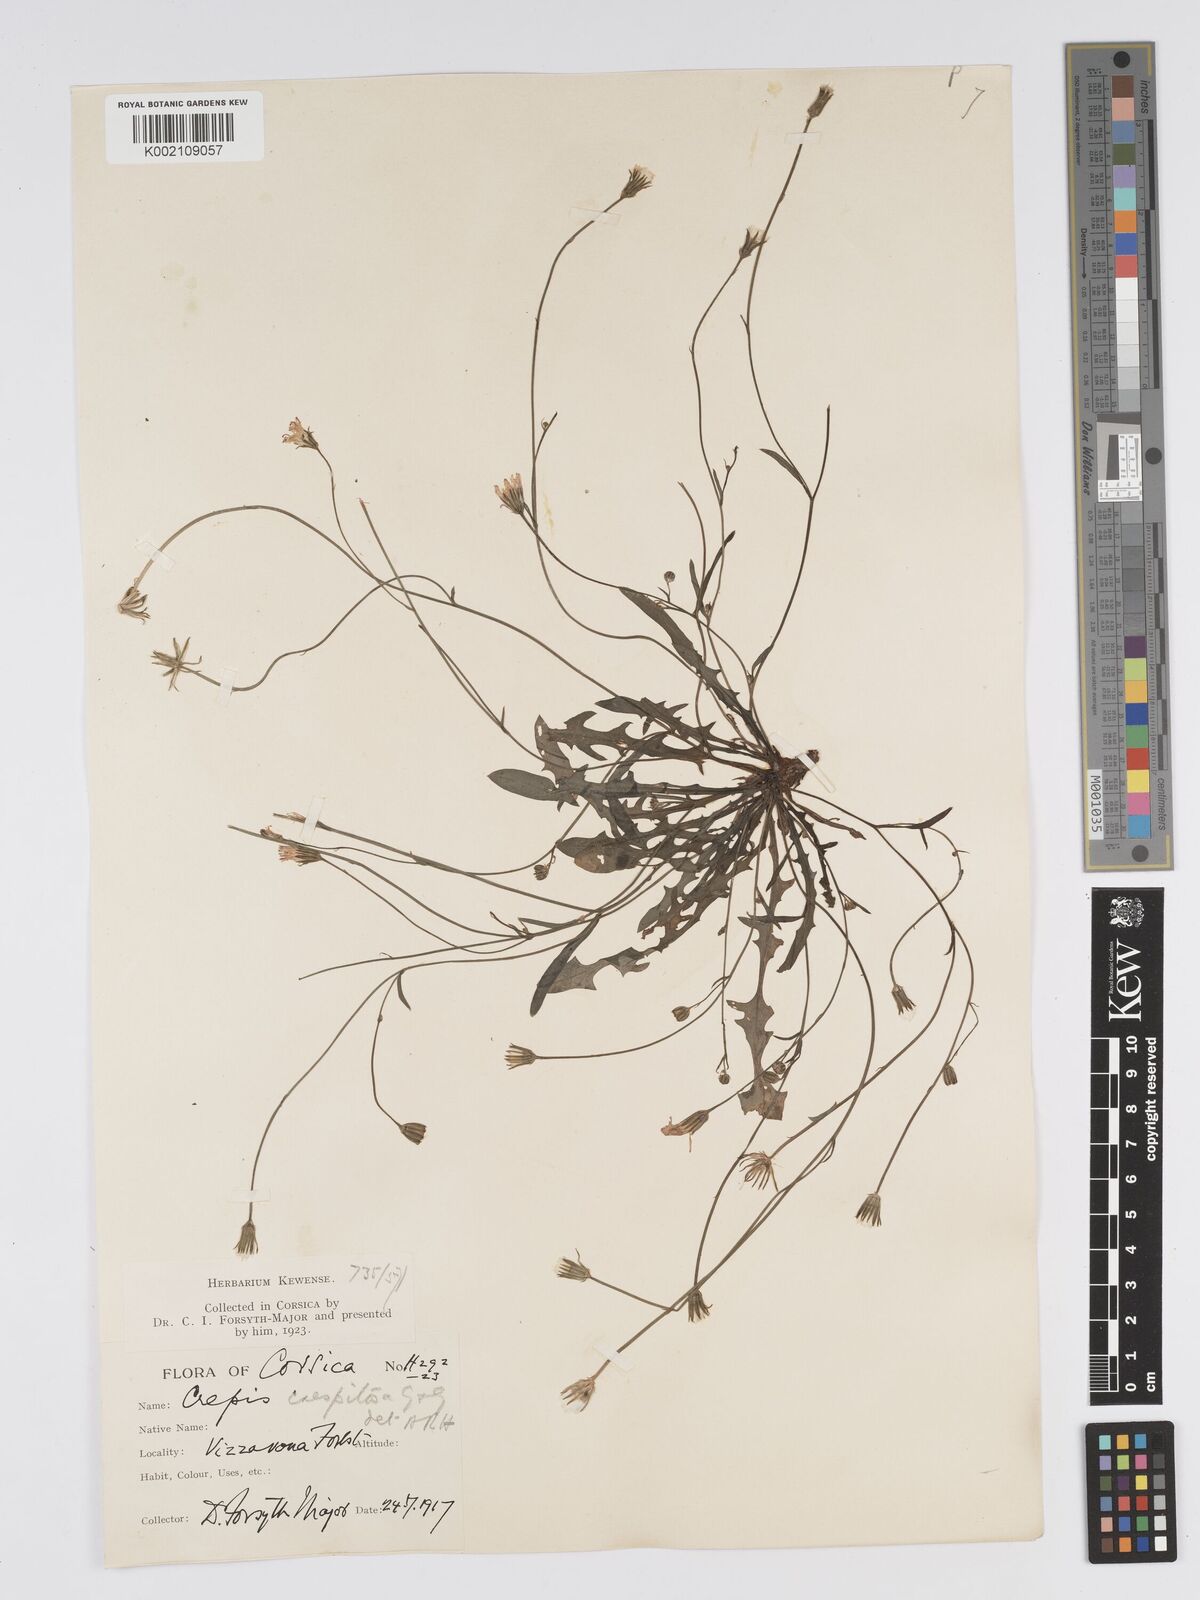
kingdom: Plantae
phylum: Tracheophyta
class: Magnoliopsida
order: Asterales
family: Asteraceae
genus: Crepis
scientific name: Crepis
